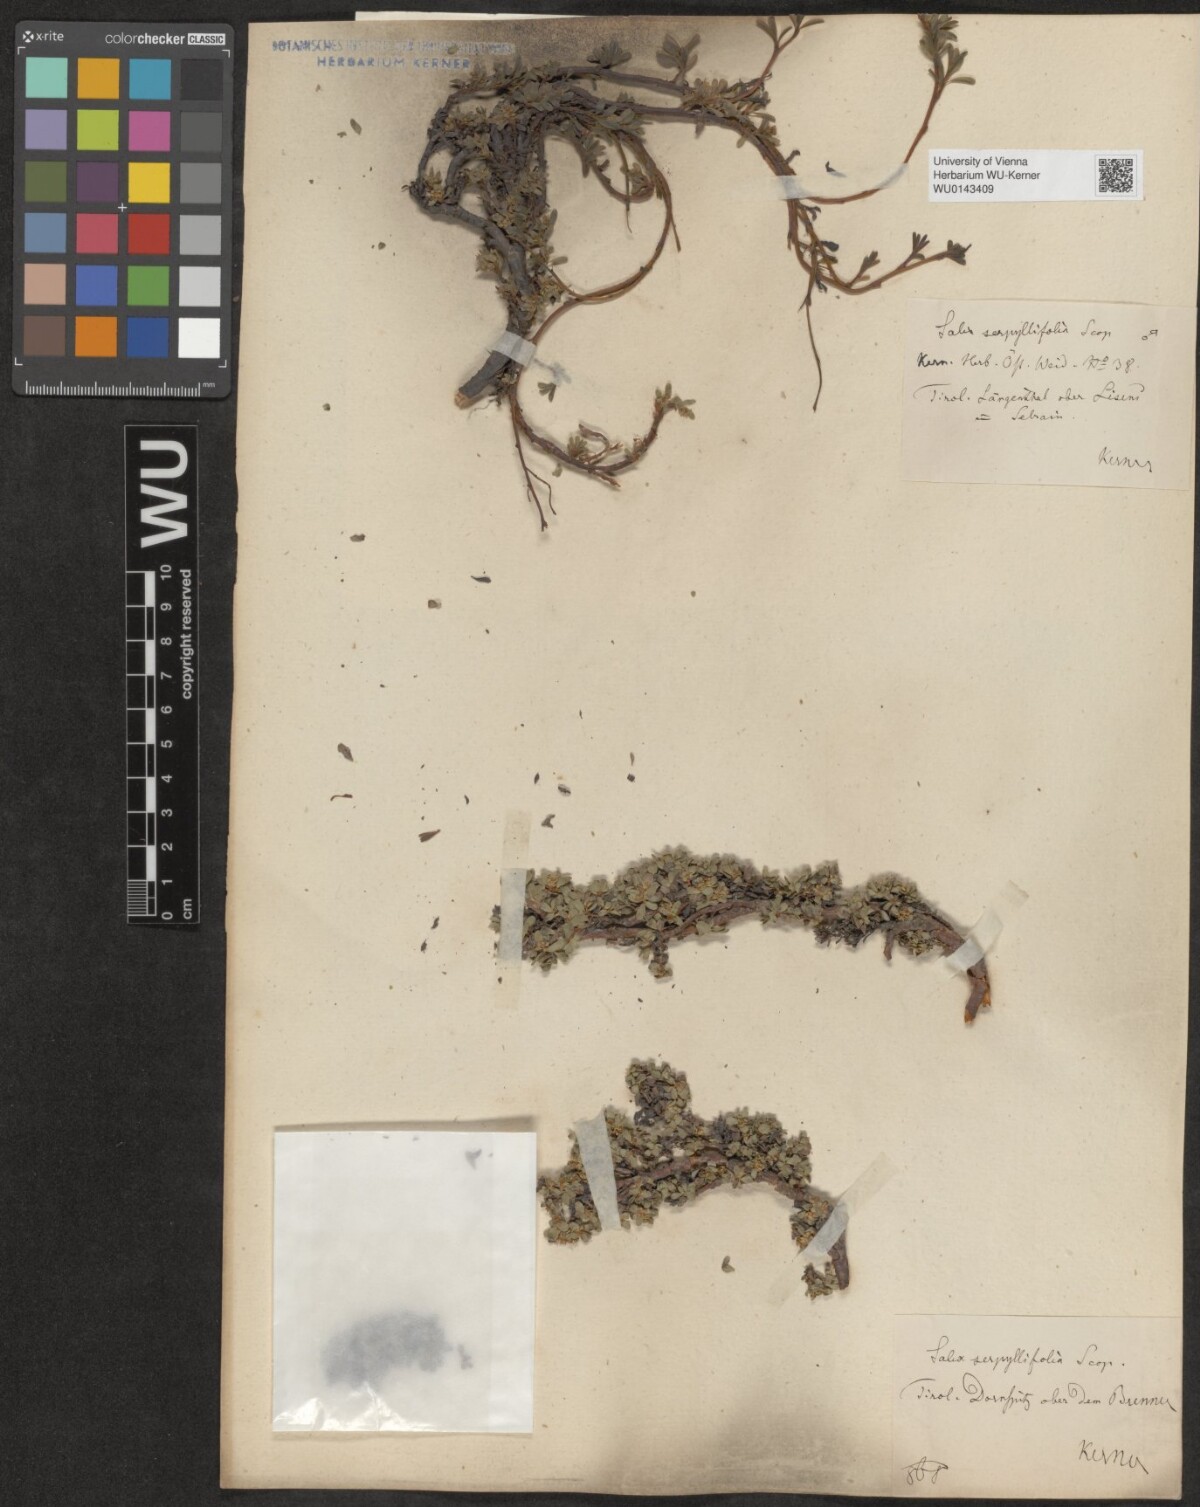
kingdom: Plantae
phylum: Tracheophyta
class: Magnoliopsida
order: Malpighiales
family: Salicaceae
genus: Salix
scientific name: Salix serpillifolia
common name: Thyme-leaf willow
